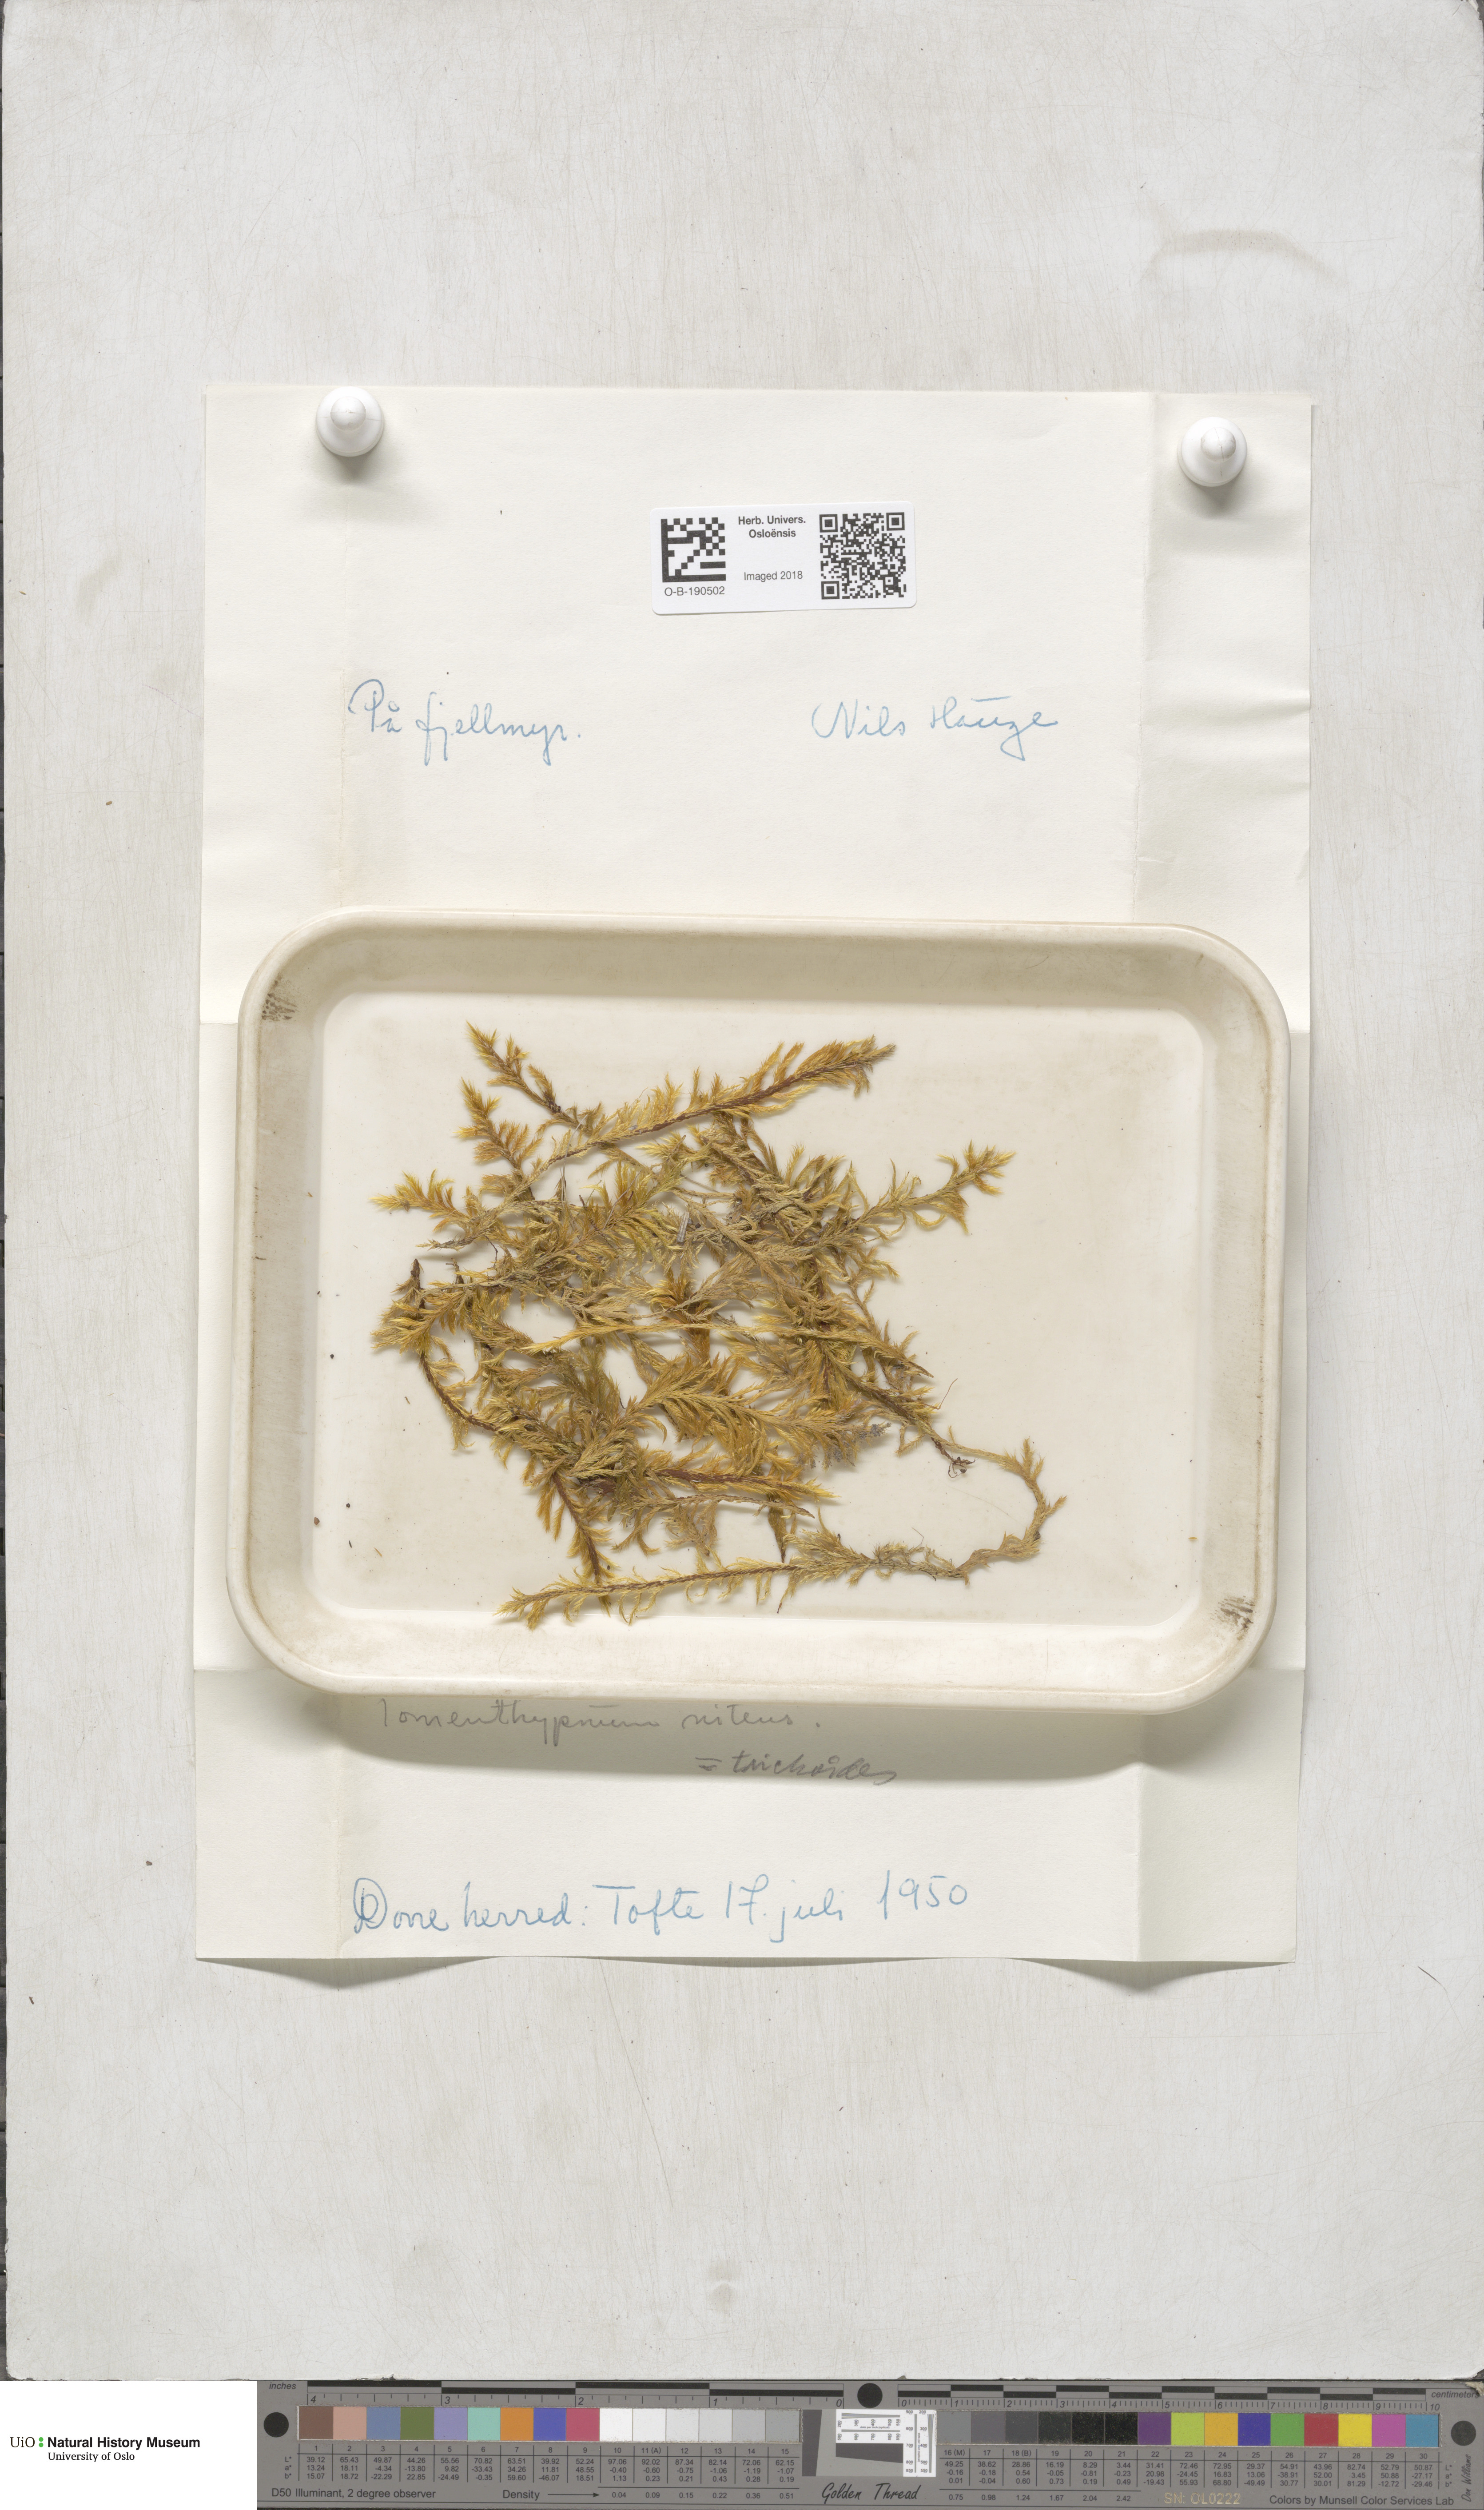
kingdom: Plantae
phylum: Bryophyta
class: Bryopsida
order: Hypnales
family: Amblystegiaceae
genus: Tomentypnum
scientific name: Tomentypnum nitens
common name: Golden fuzzy fen moss
